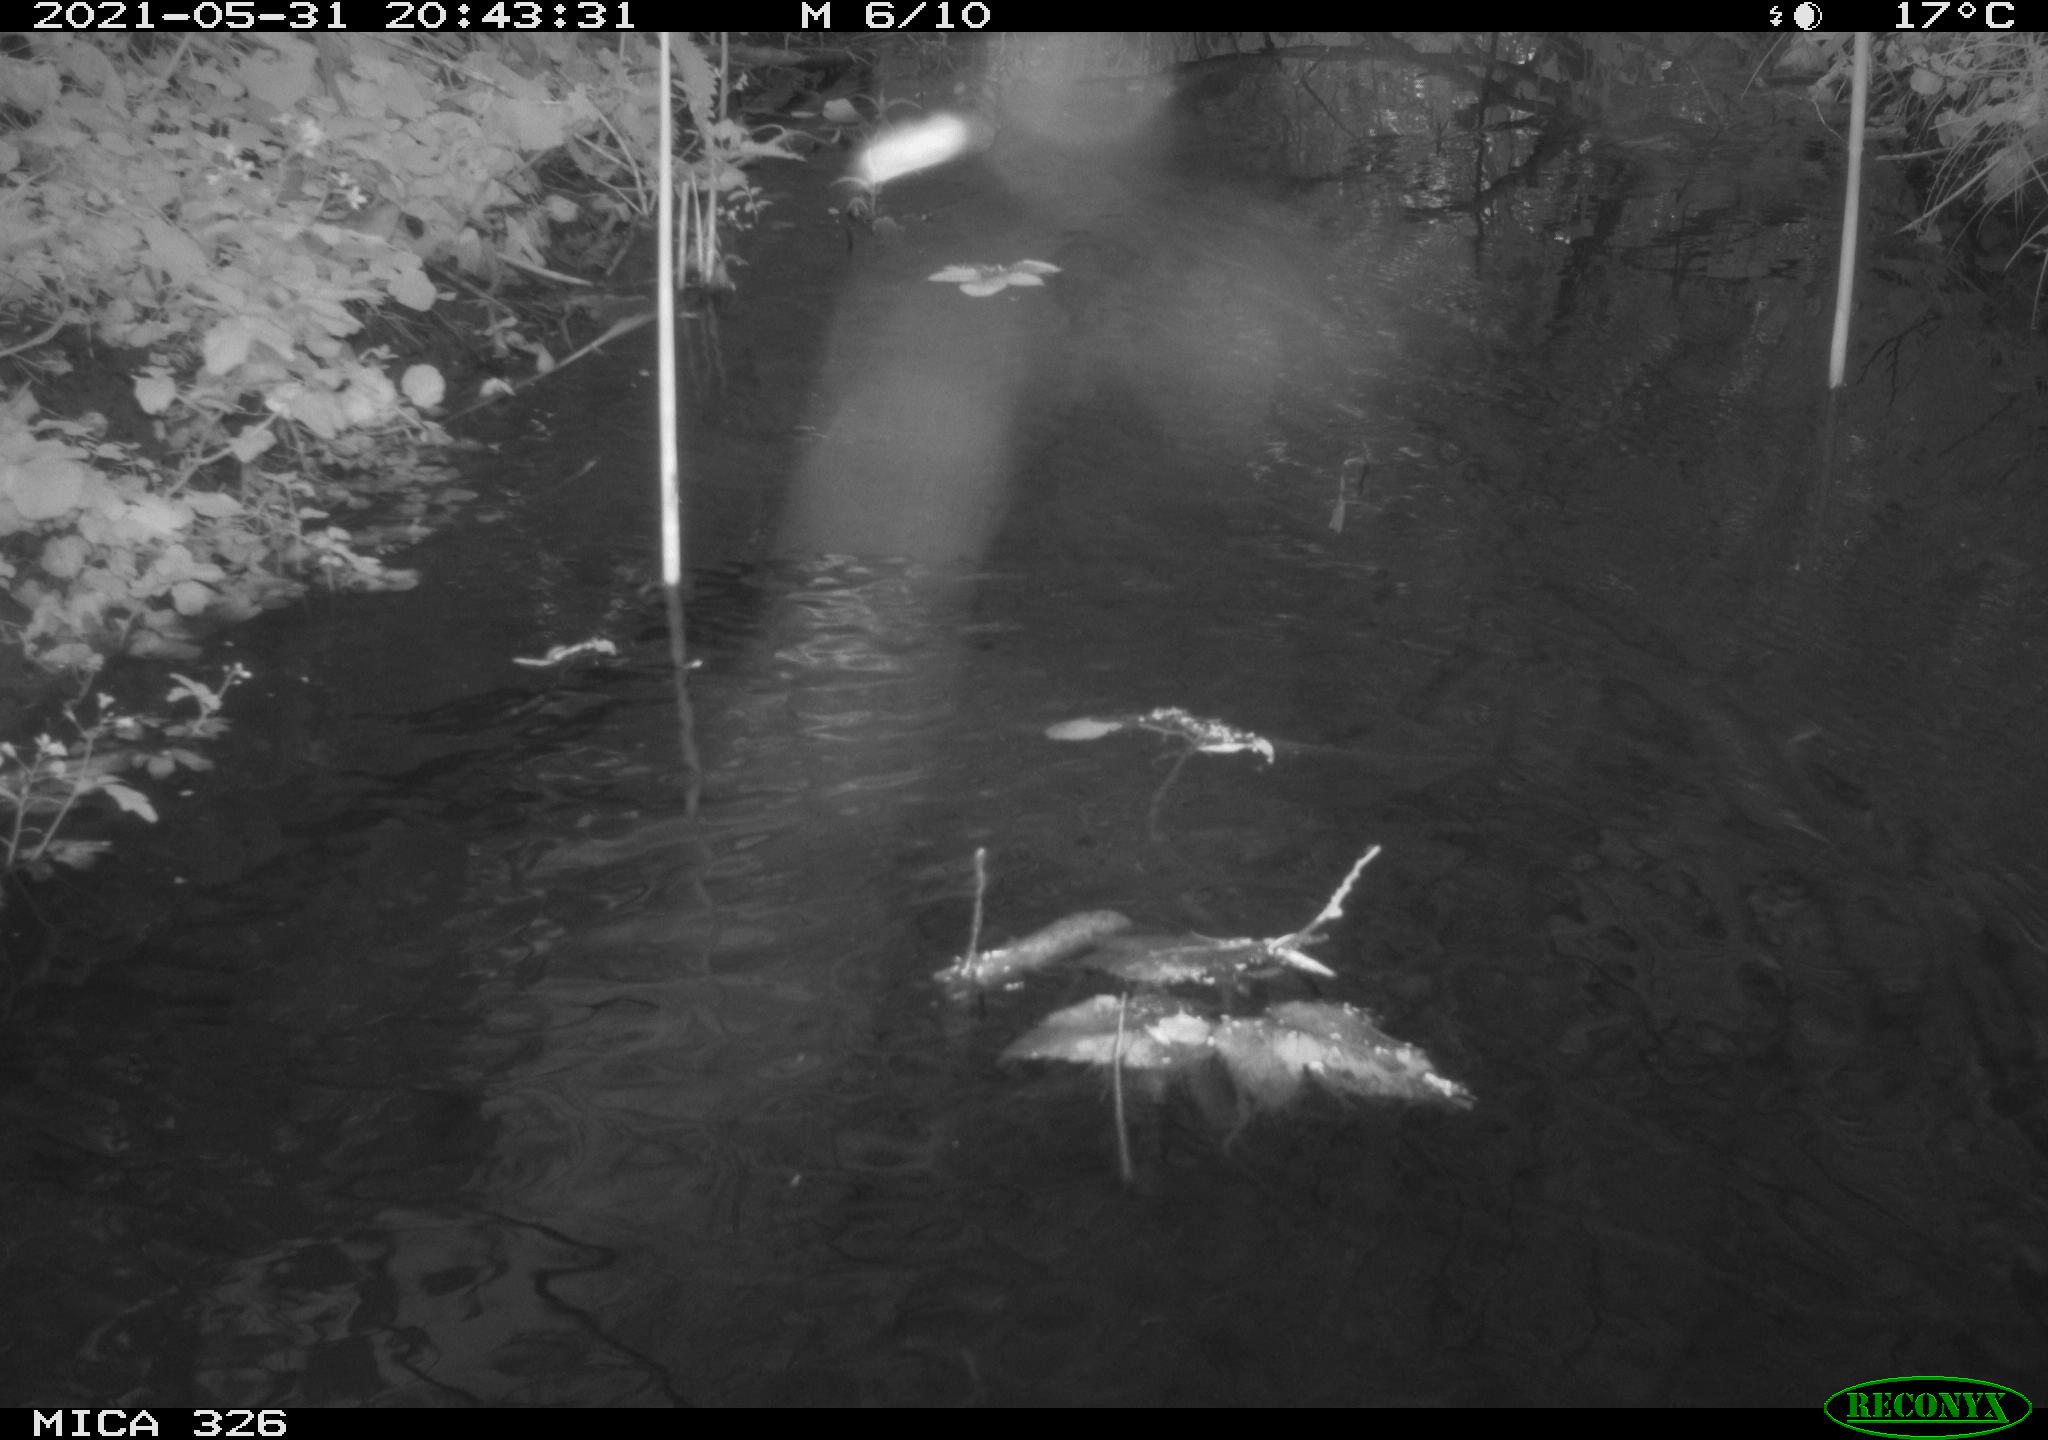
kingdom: Animalia
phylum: Chordata
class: Mammalia
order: Rodentia
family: Muridae
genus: Rattus
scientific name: Rattus norvegicus
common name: Brown rat
